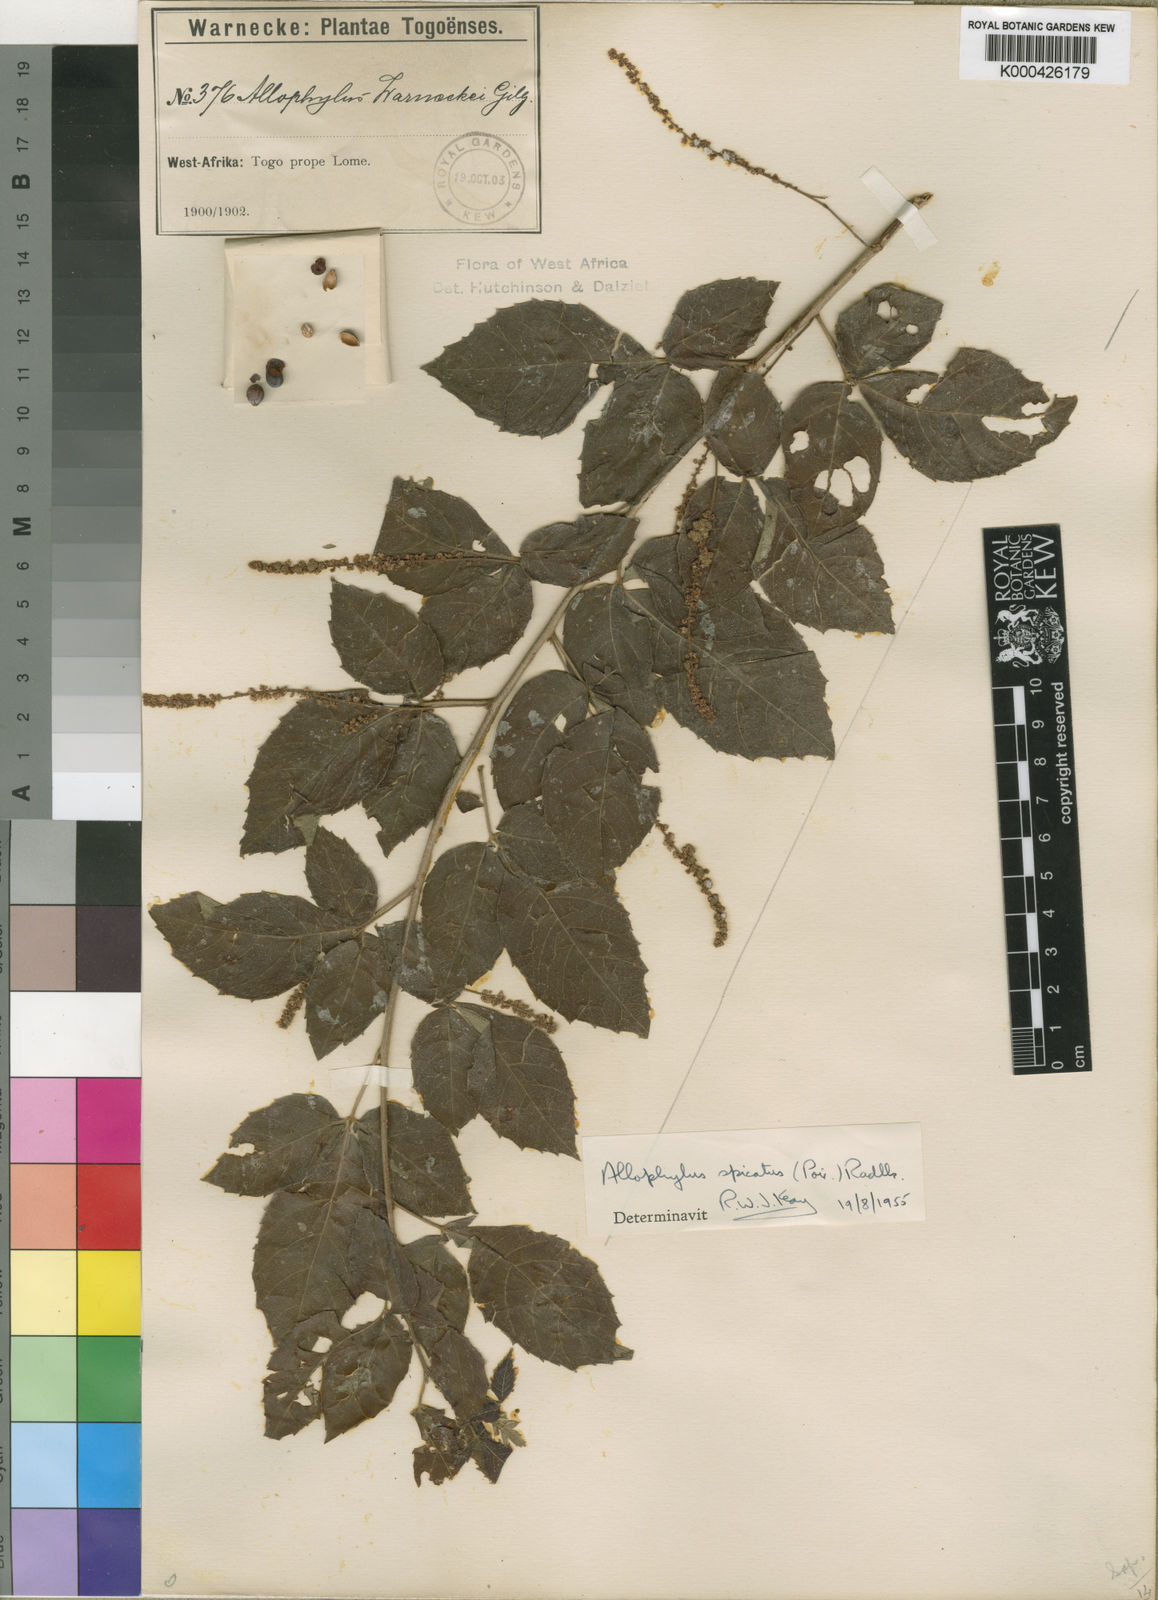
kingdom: Plantae
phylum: Tracheophyta
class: Magnoliopsida
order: Sapindales
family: Sapindaceae
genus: Allophylus
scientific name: Allophylus spicatus
